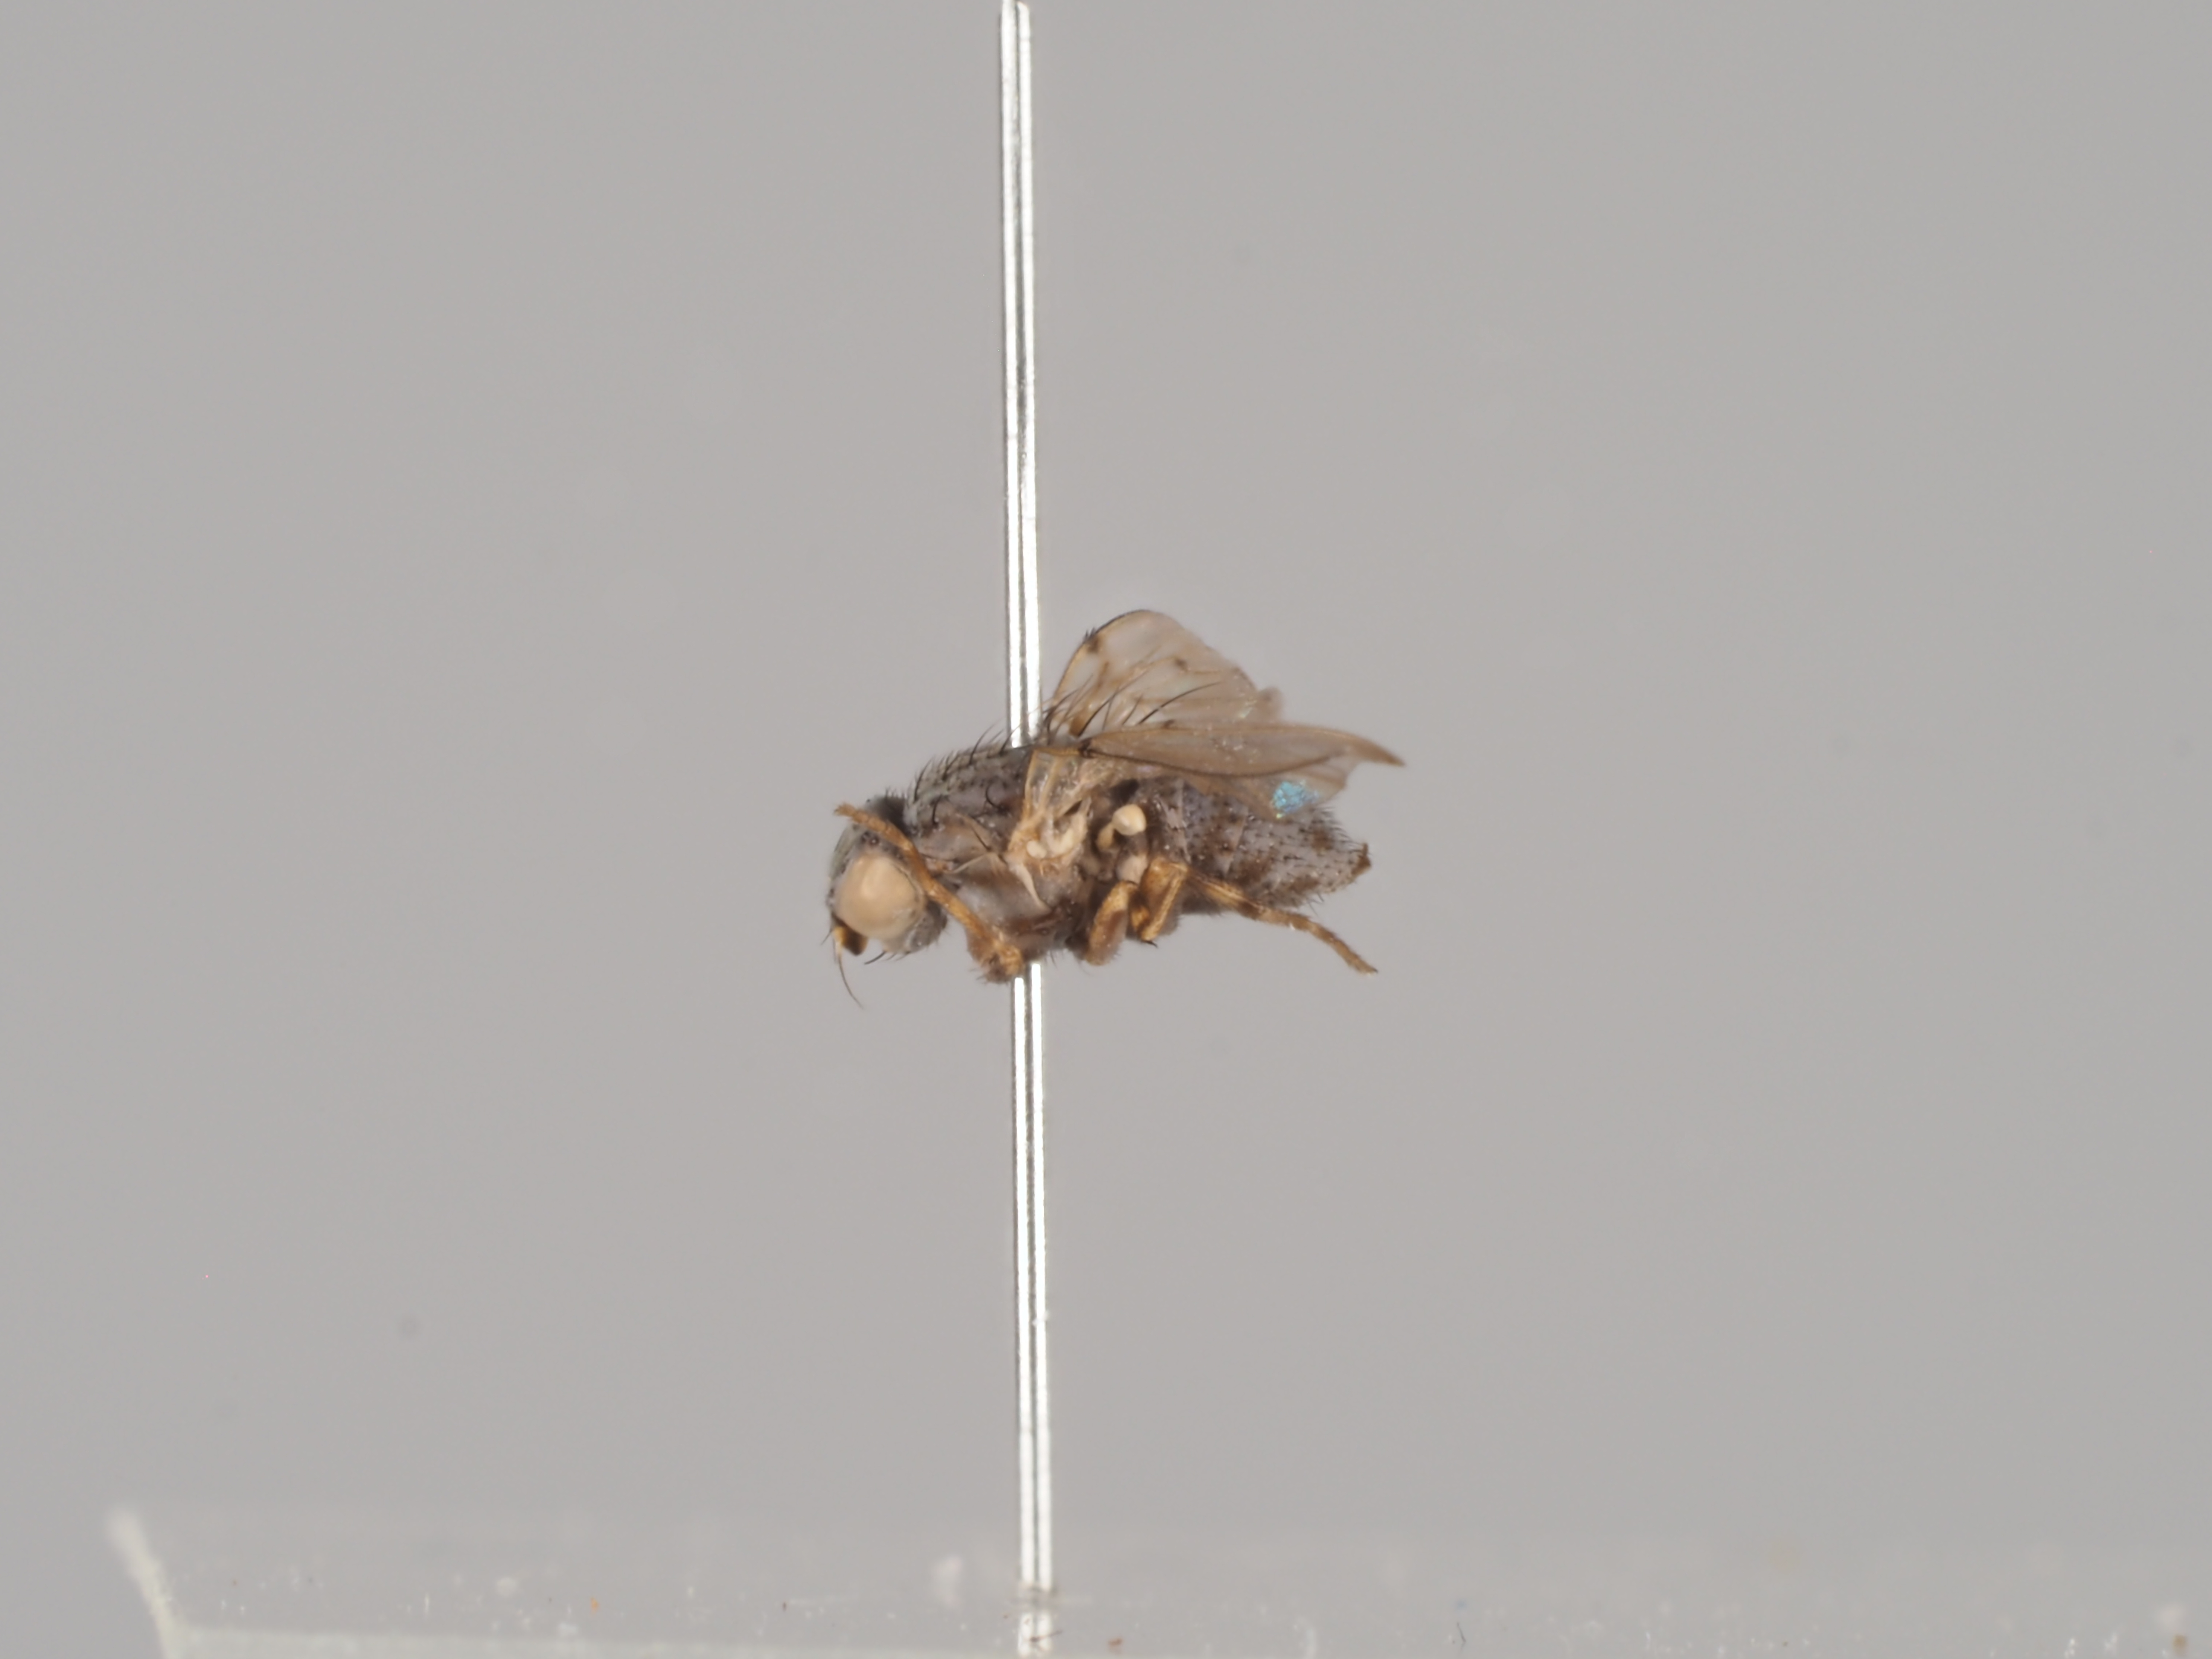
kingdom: Animalia
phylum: Arthropoda
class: Insecta
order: Diptera
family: Odiniidae
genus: Odinia
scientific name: Odinia boletina
